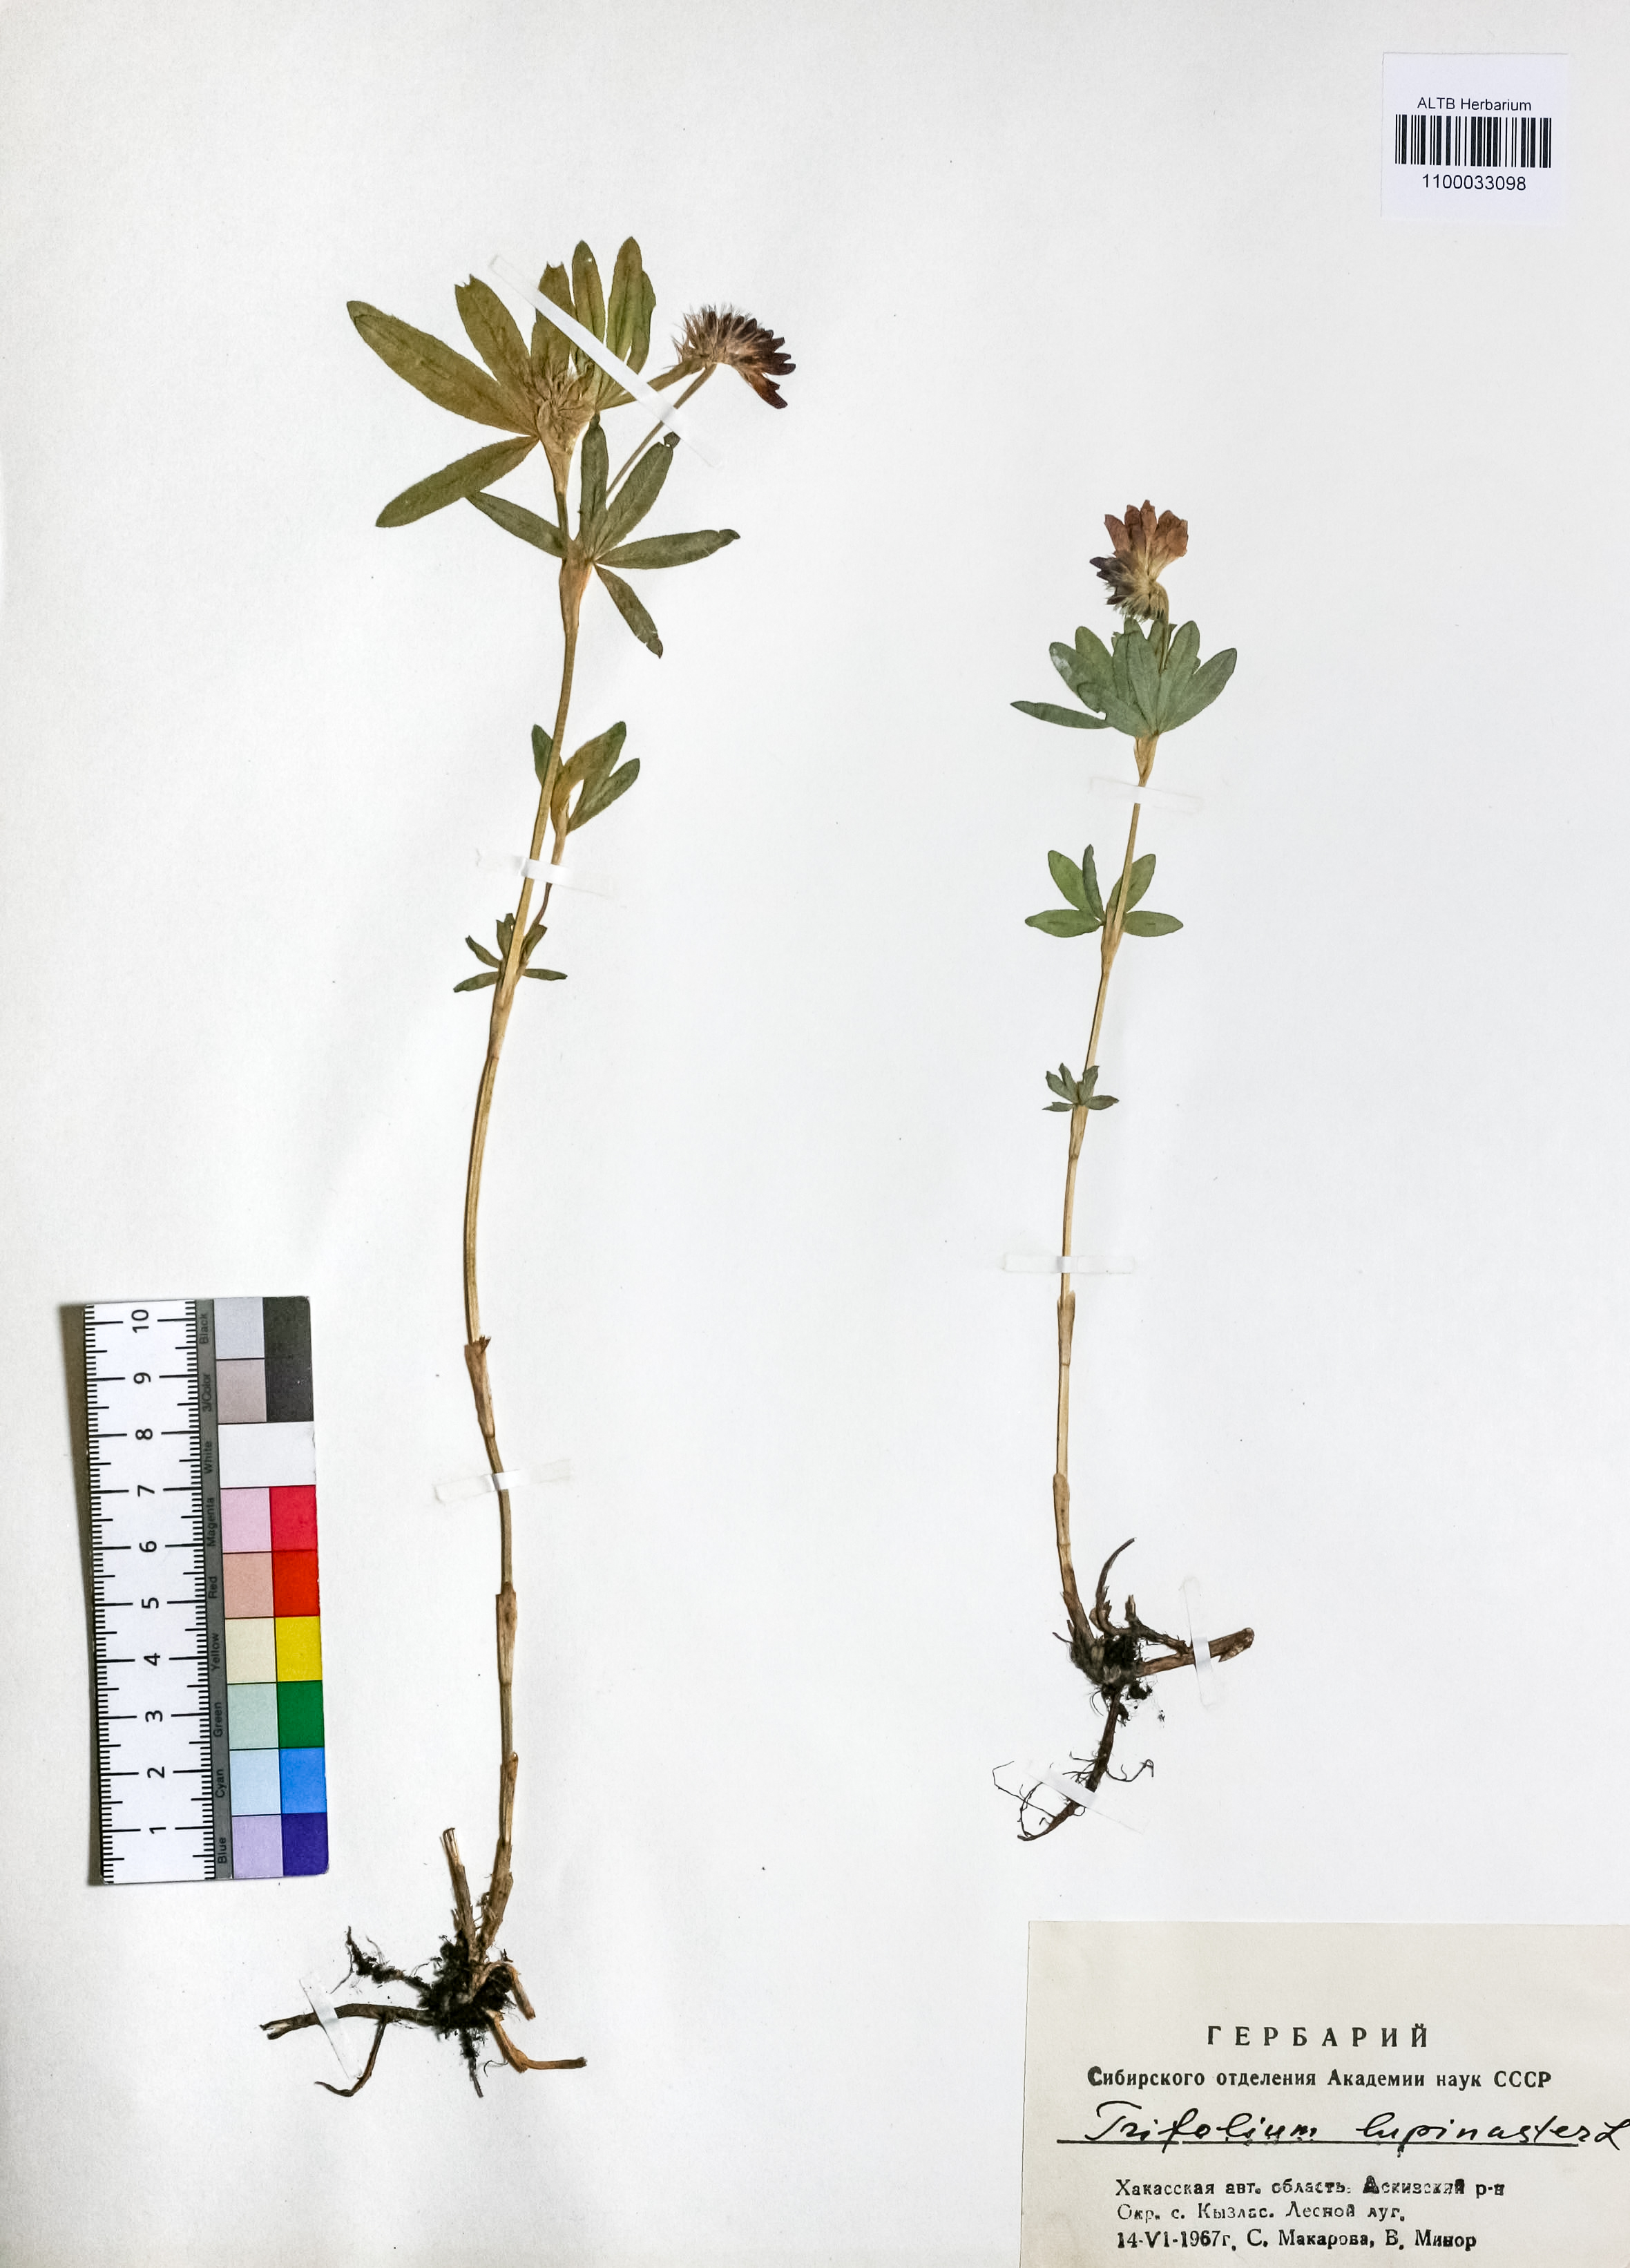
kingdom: Plantae
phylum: Tracheophyta
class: Magnoliopsida
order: Fabales
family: Fabaceae
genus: Trifolium
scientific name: Trifolium lupinaster
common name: Lupine clover
